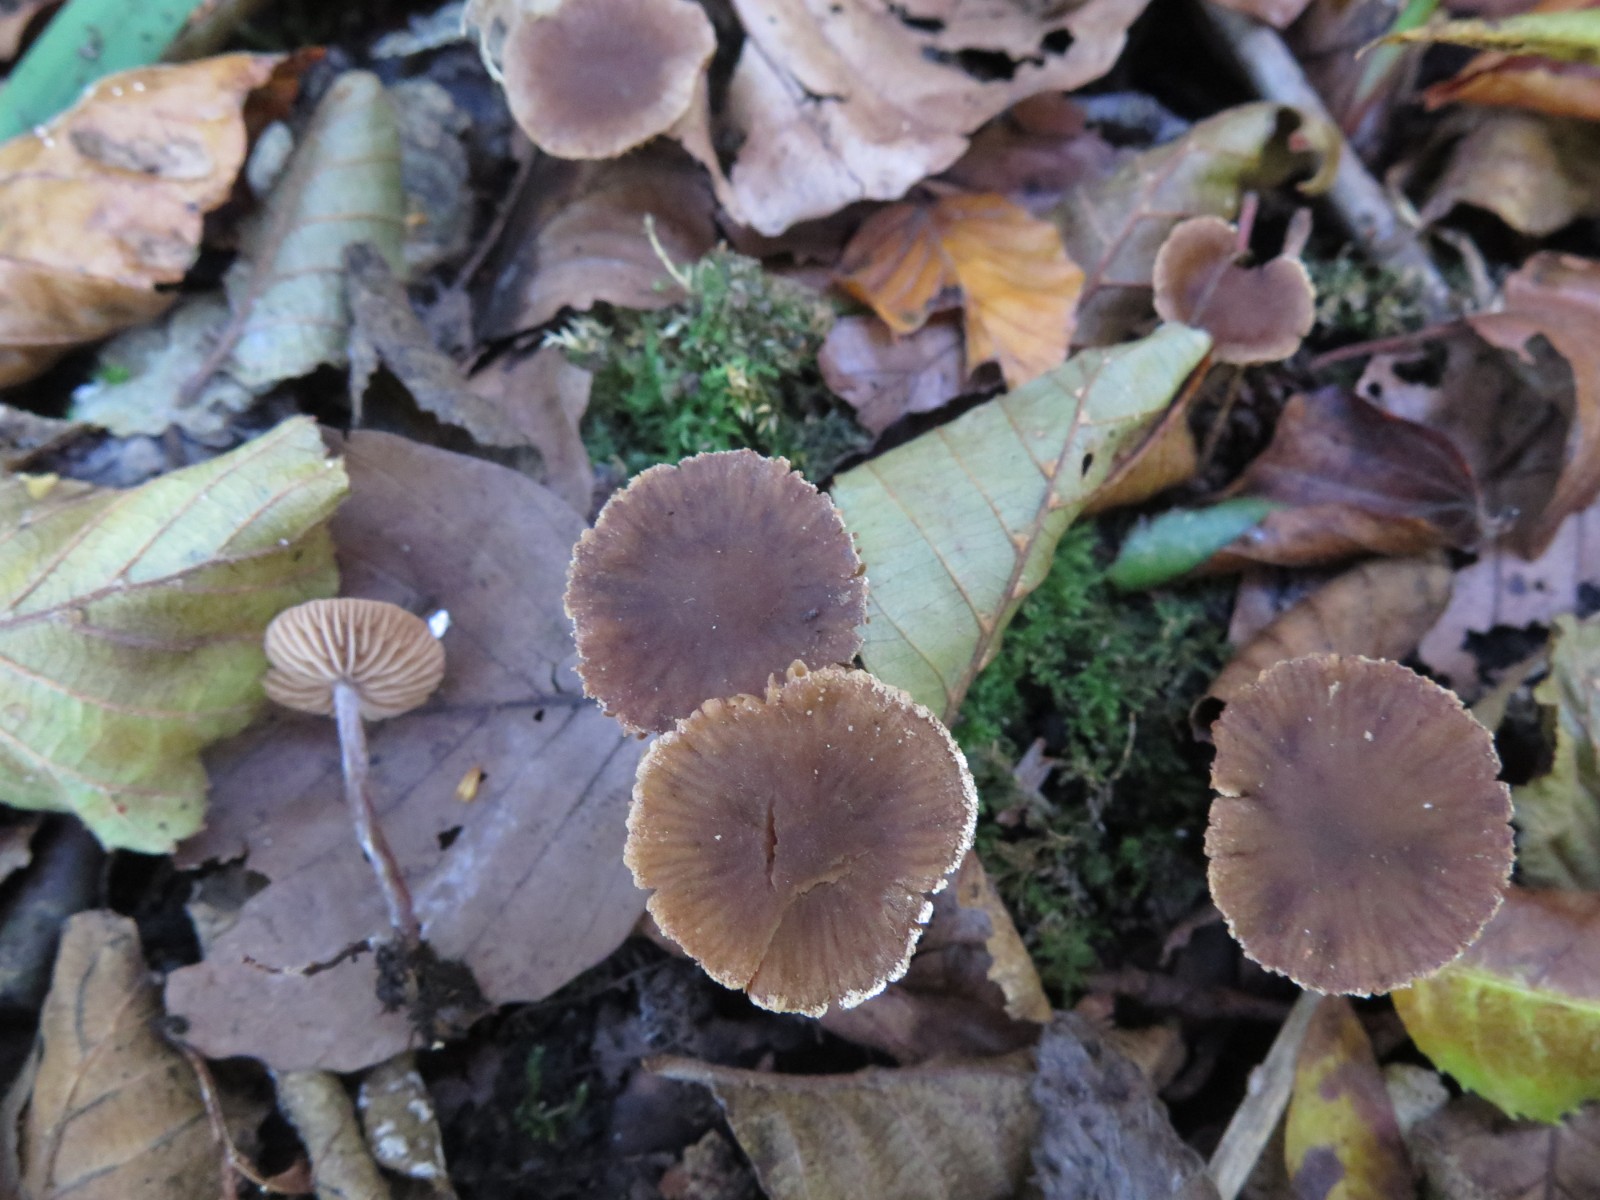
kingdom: Fungi
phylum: Basidiomycota
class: Agaricomycetes
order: Agaricales
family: Hymenogastraceae
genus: Naucoria
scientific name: Naucoria scolecina
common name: mørk elle-knaphat
